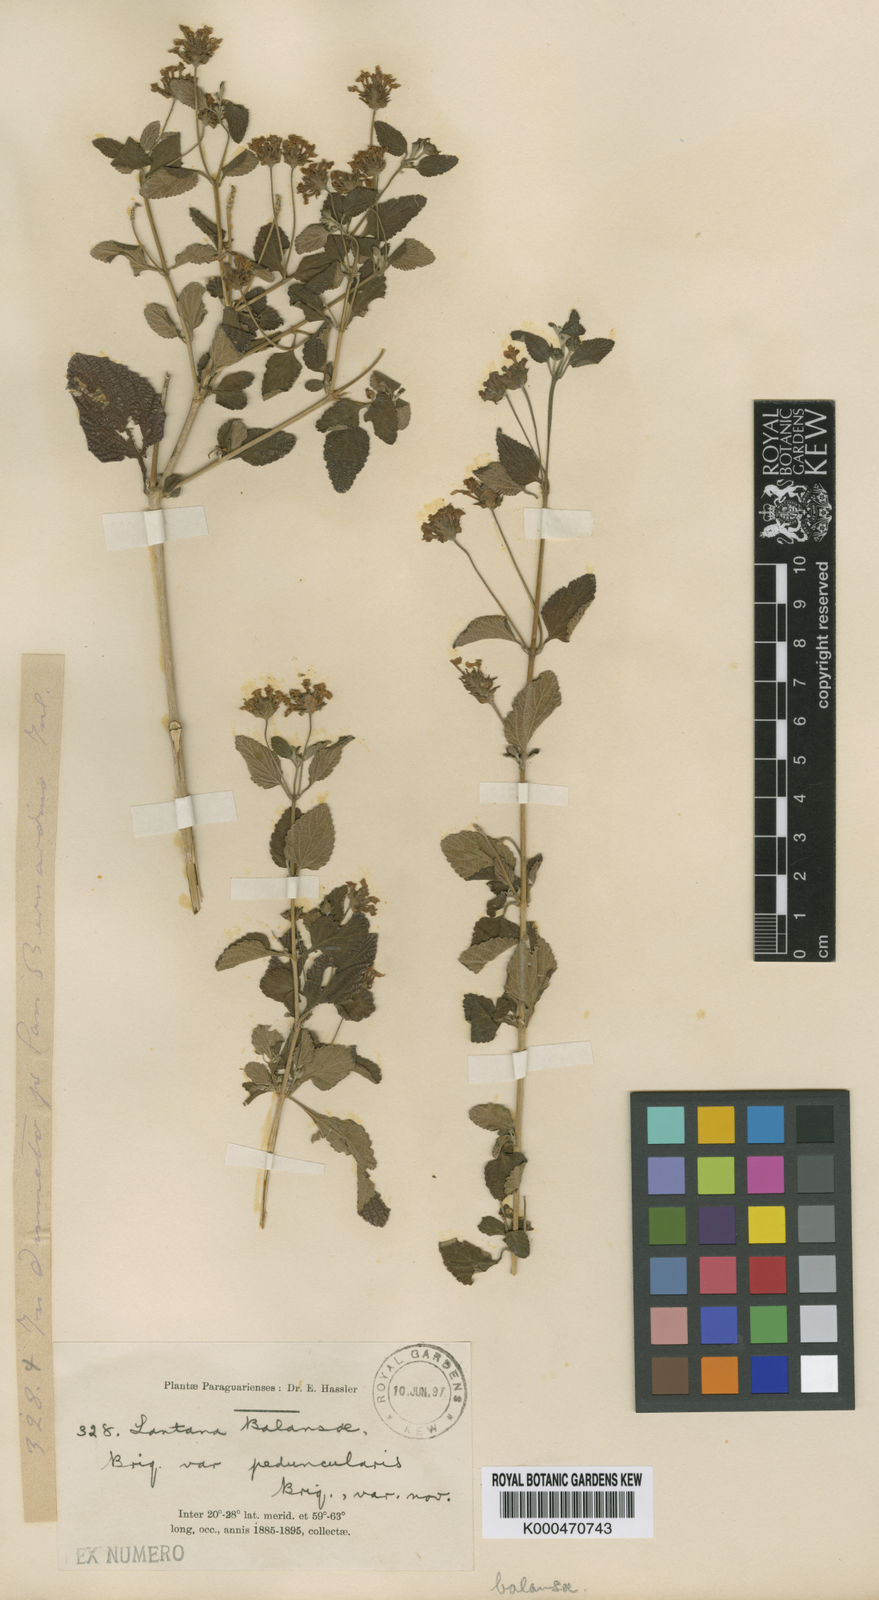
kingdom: Plantae
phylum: Tracheophyta
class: Magnoliopsida
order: Lamiales
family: Verbenaceae
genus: Lantana
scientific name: Lantana balansae
